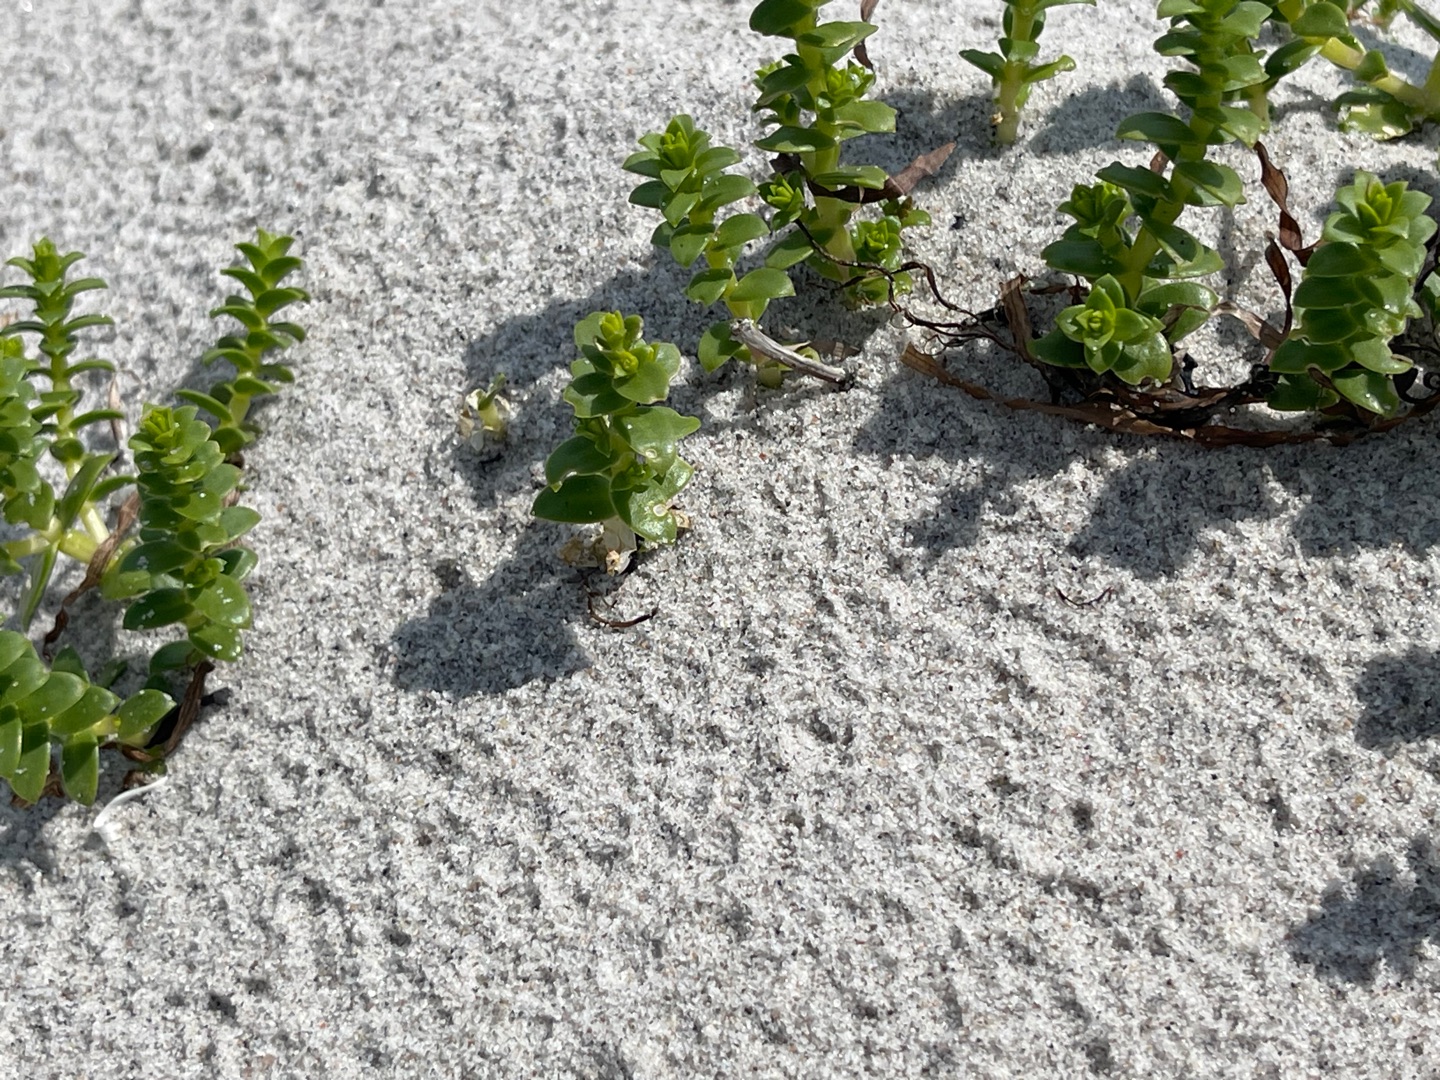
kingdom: Plantae
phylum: Tracheophyta
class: Magnoliopsida
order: Caryophyllales
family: Caryophyllaceae
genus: Honckenya
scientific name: Honckenya peploides
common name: Strandarve
